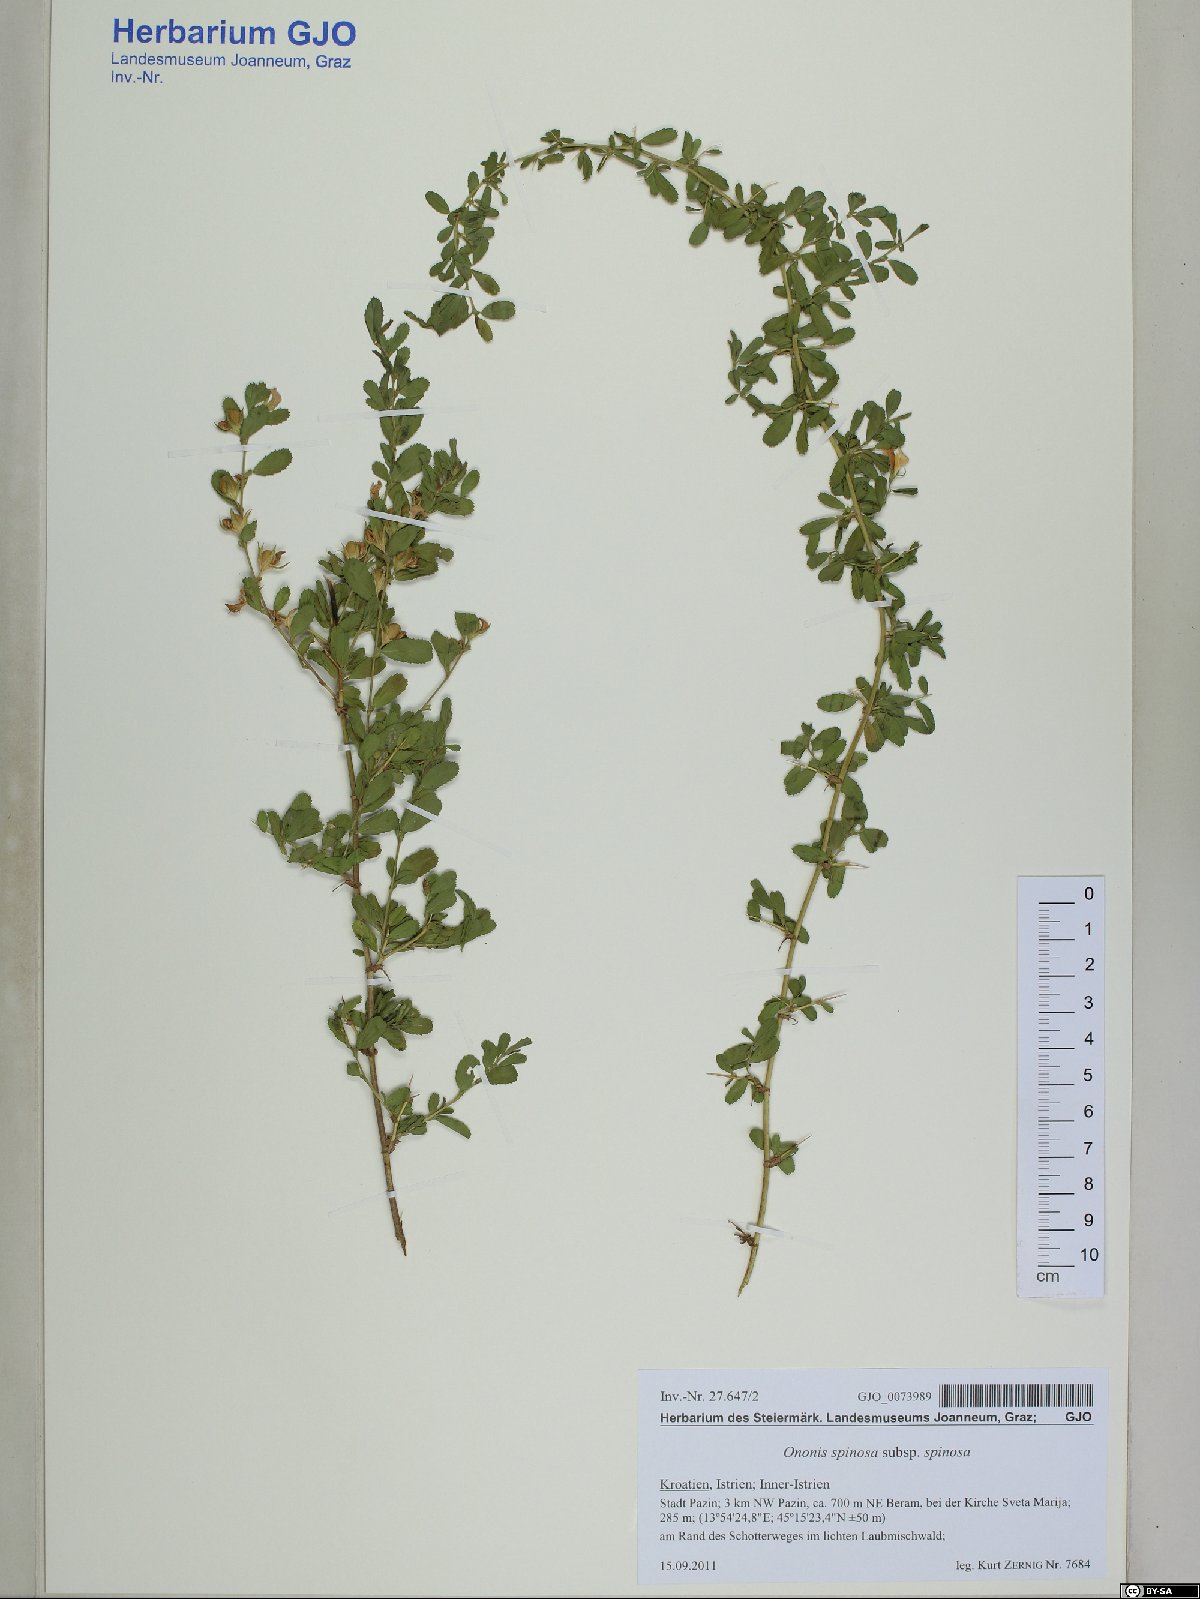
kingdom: Plantae
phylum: Tracheophyta
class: Magnoliopsida
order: Fabales
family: Fabaceae
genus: Ononis
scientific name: Ononis spinosa
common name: Spiny restharrow
